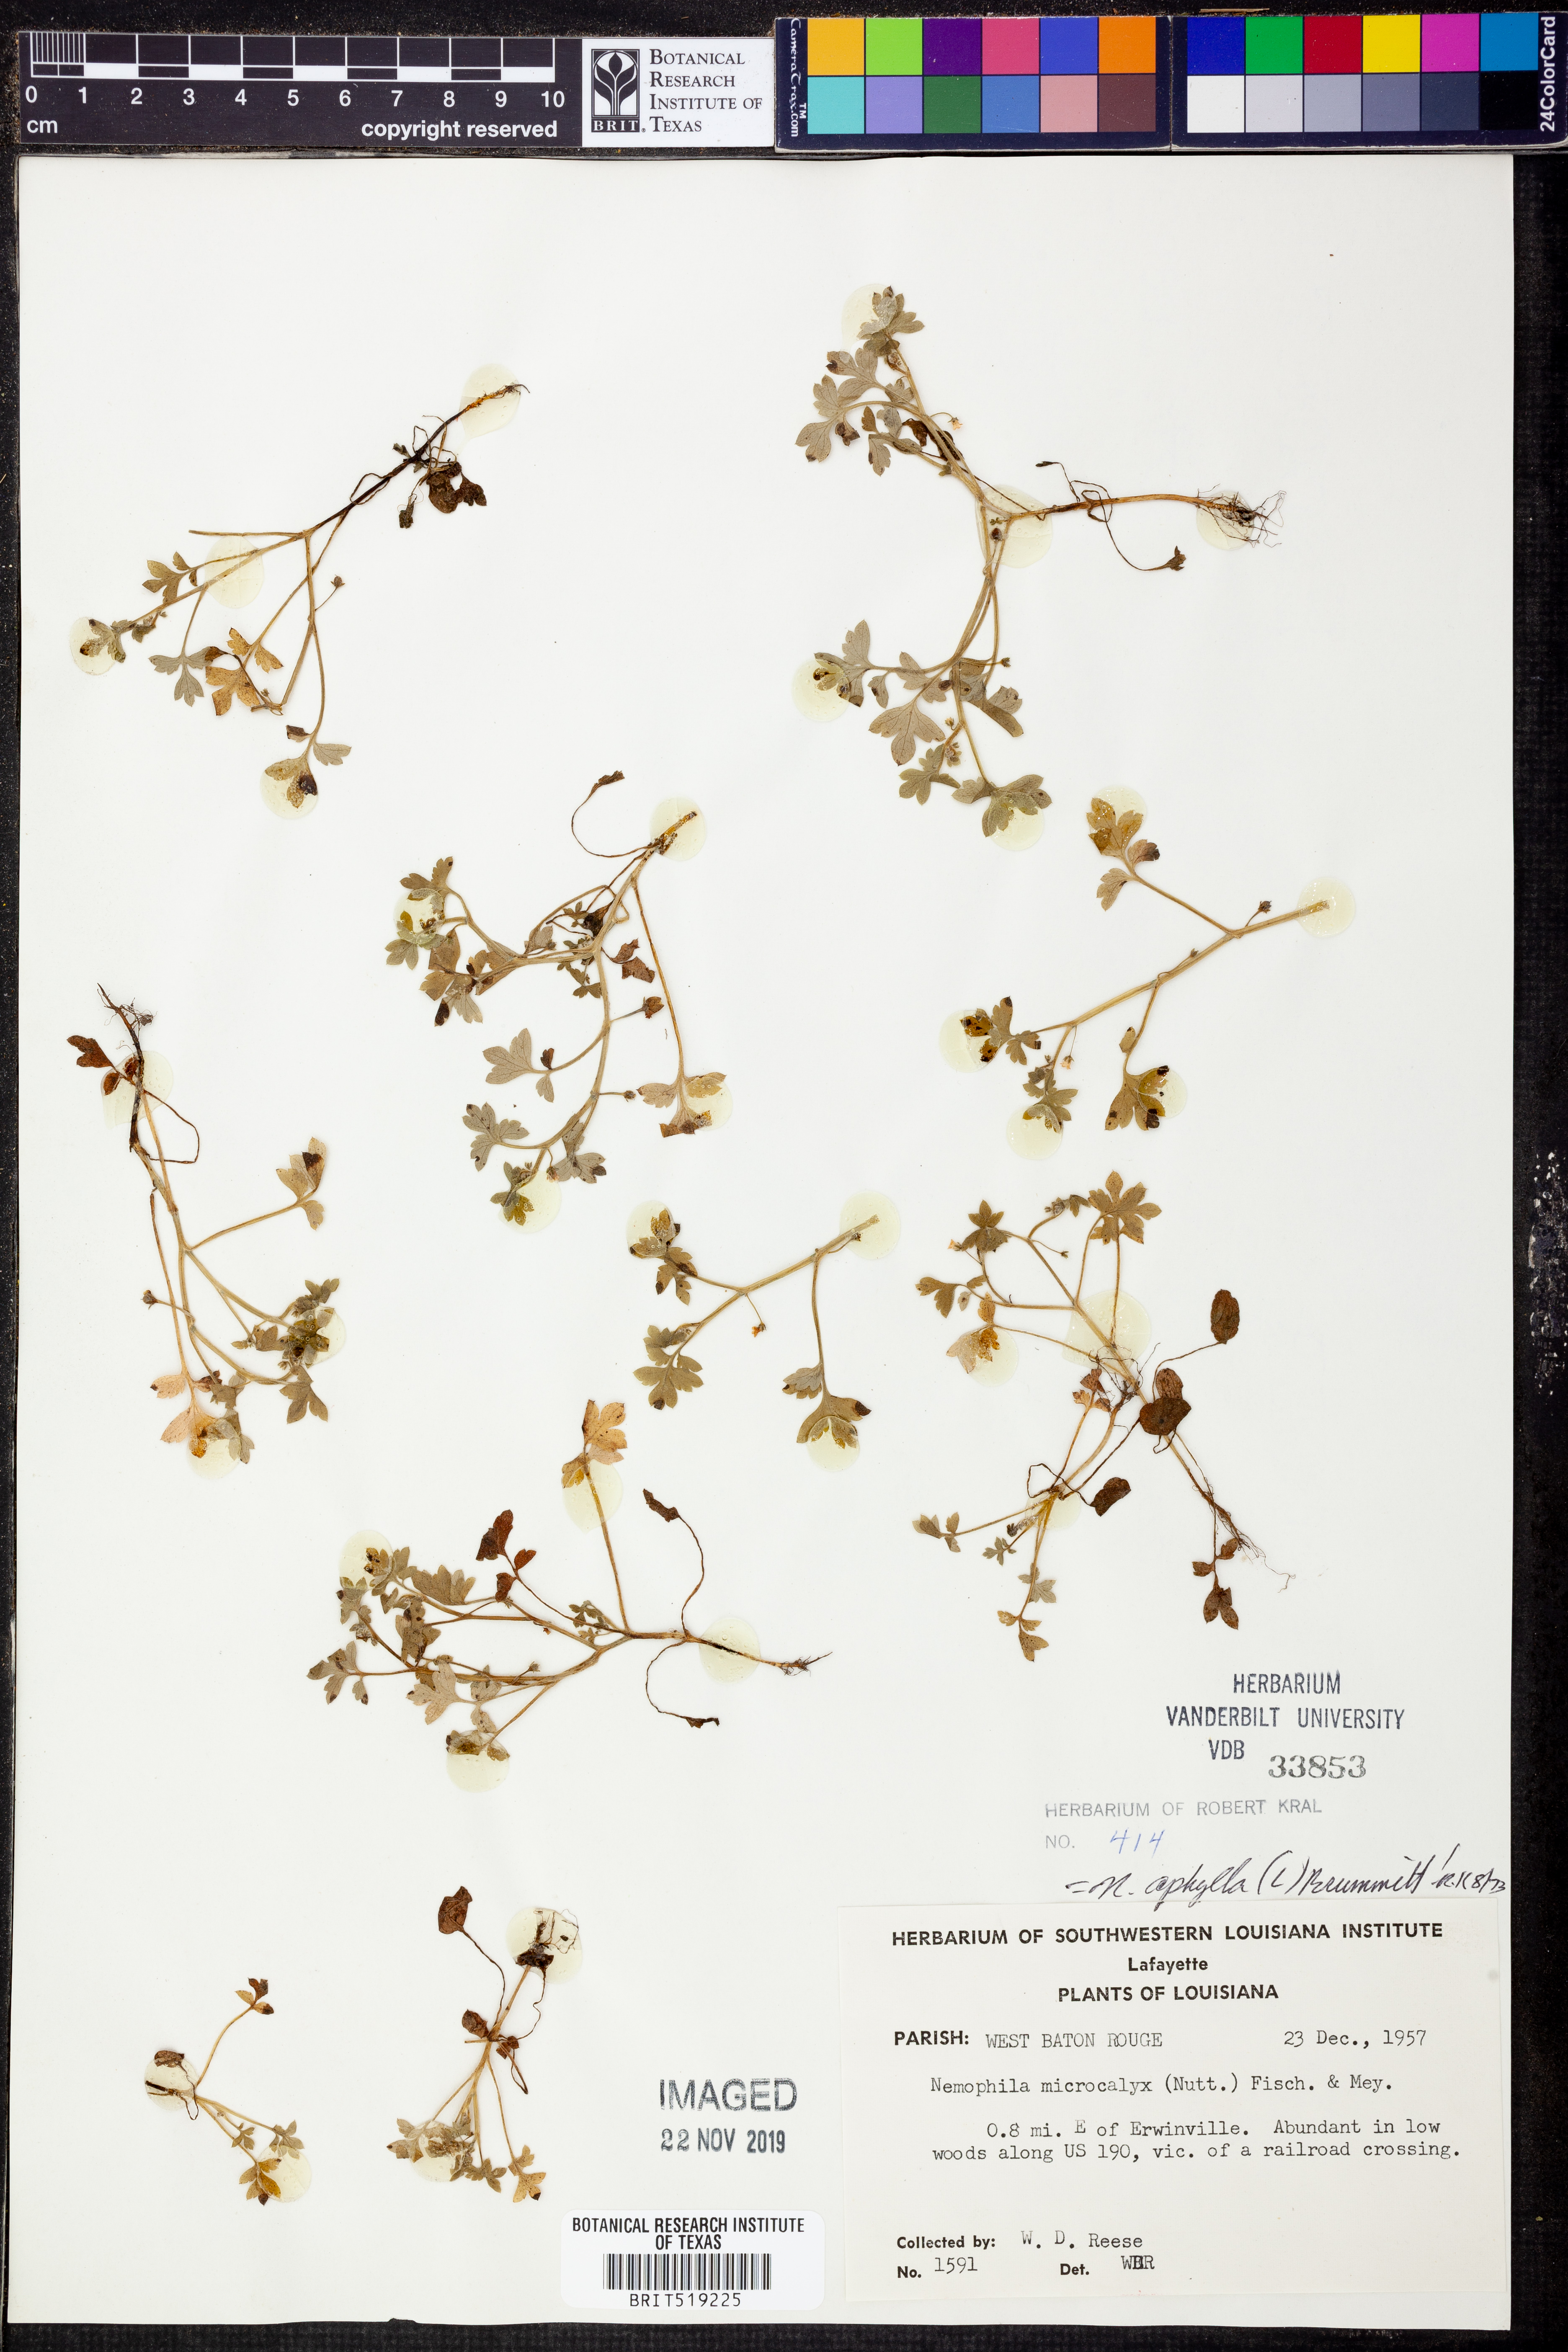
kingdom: Plantae
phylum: Tracheophyta
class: Magnoliopsida
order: Boraginales
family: Hydrophyllaceae
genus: Nemophila
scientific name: Nemophila aphylla
